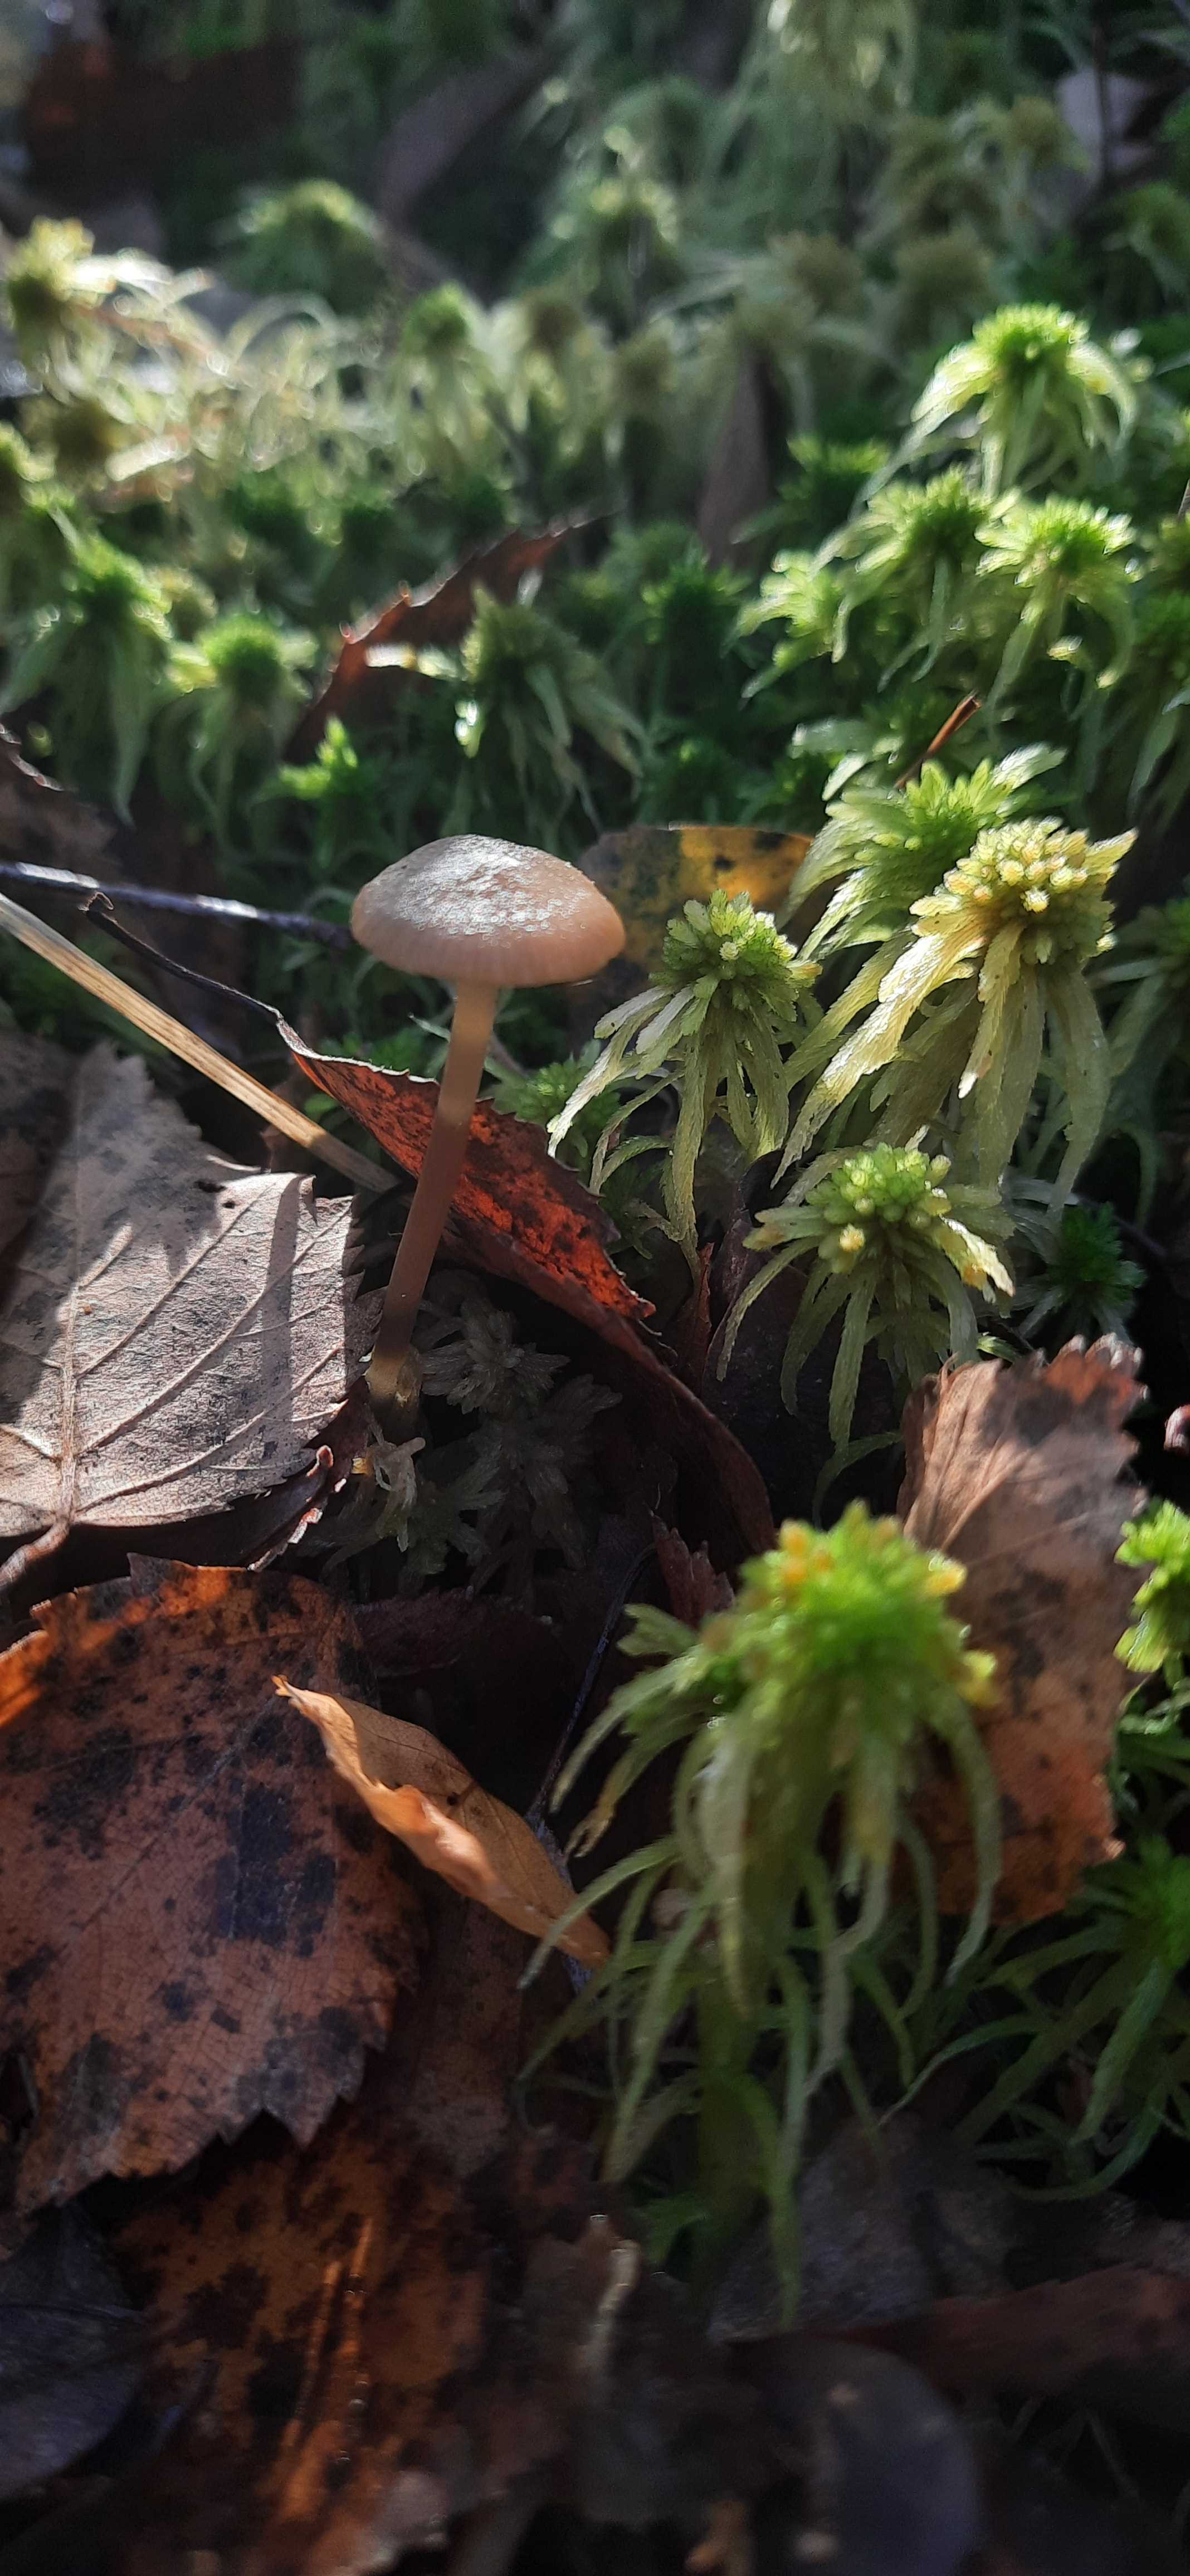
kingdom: Fungi
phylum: Basidiomycota
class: Agaricomycetes
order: Agaricales
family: Lyophyllaceae
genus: Sphagnurus
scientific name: Sphagnurus paluster
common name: tørvemos-gråblad
